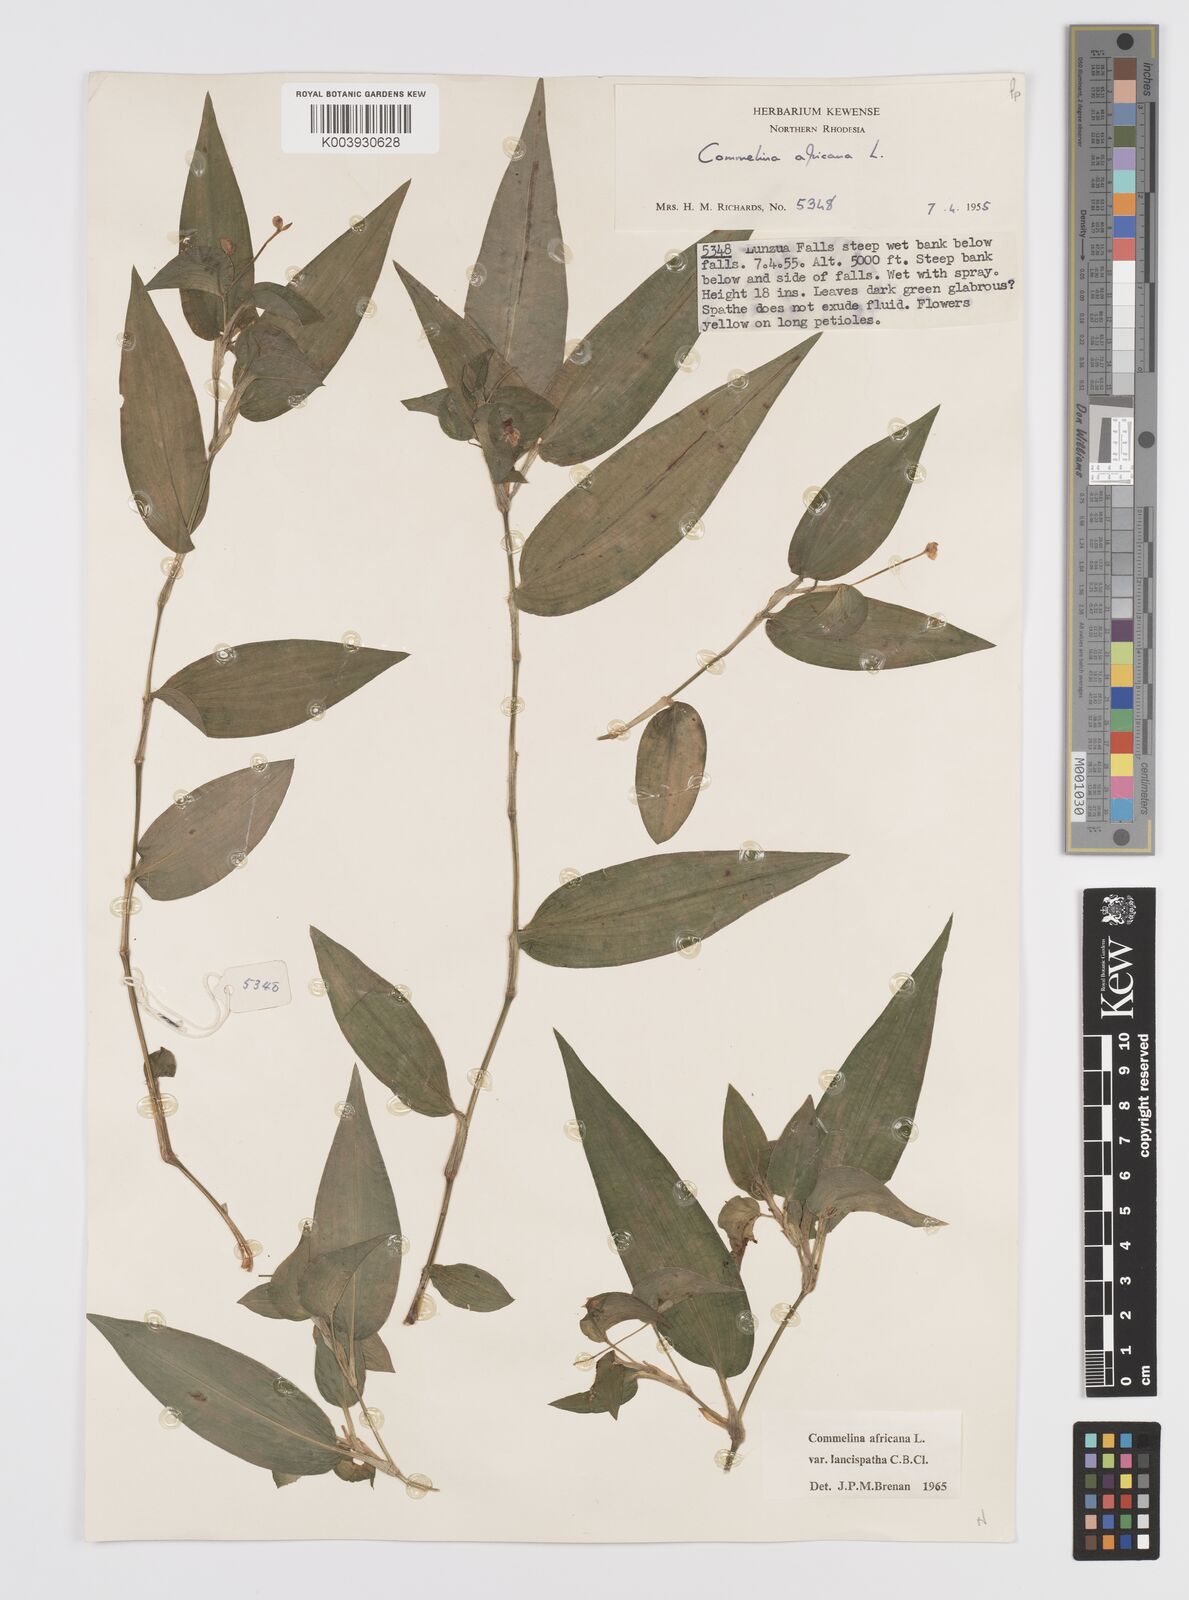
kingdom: Plantae
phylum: Tracheophyta
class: Liliopsida
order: Commelinales
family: Commelinaceae
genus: Commelina
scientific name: Commelina africana
